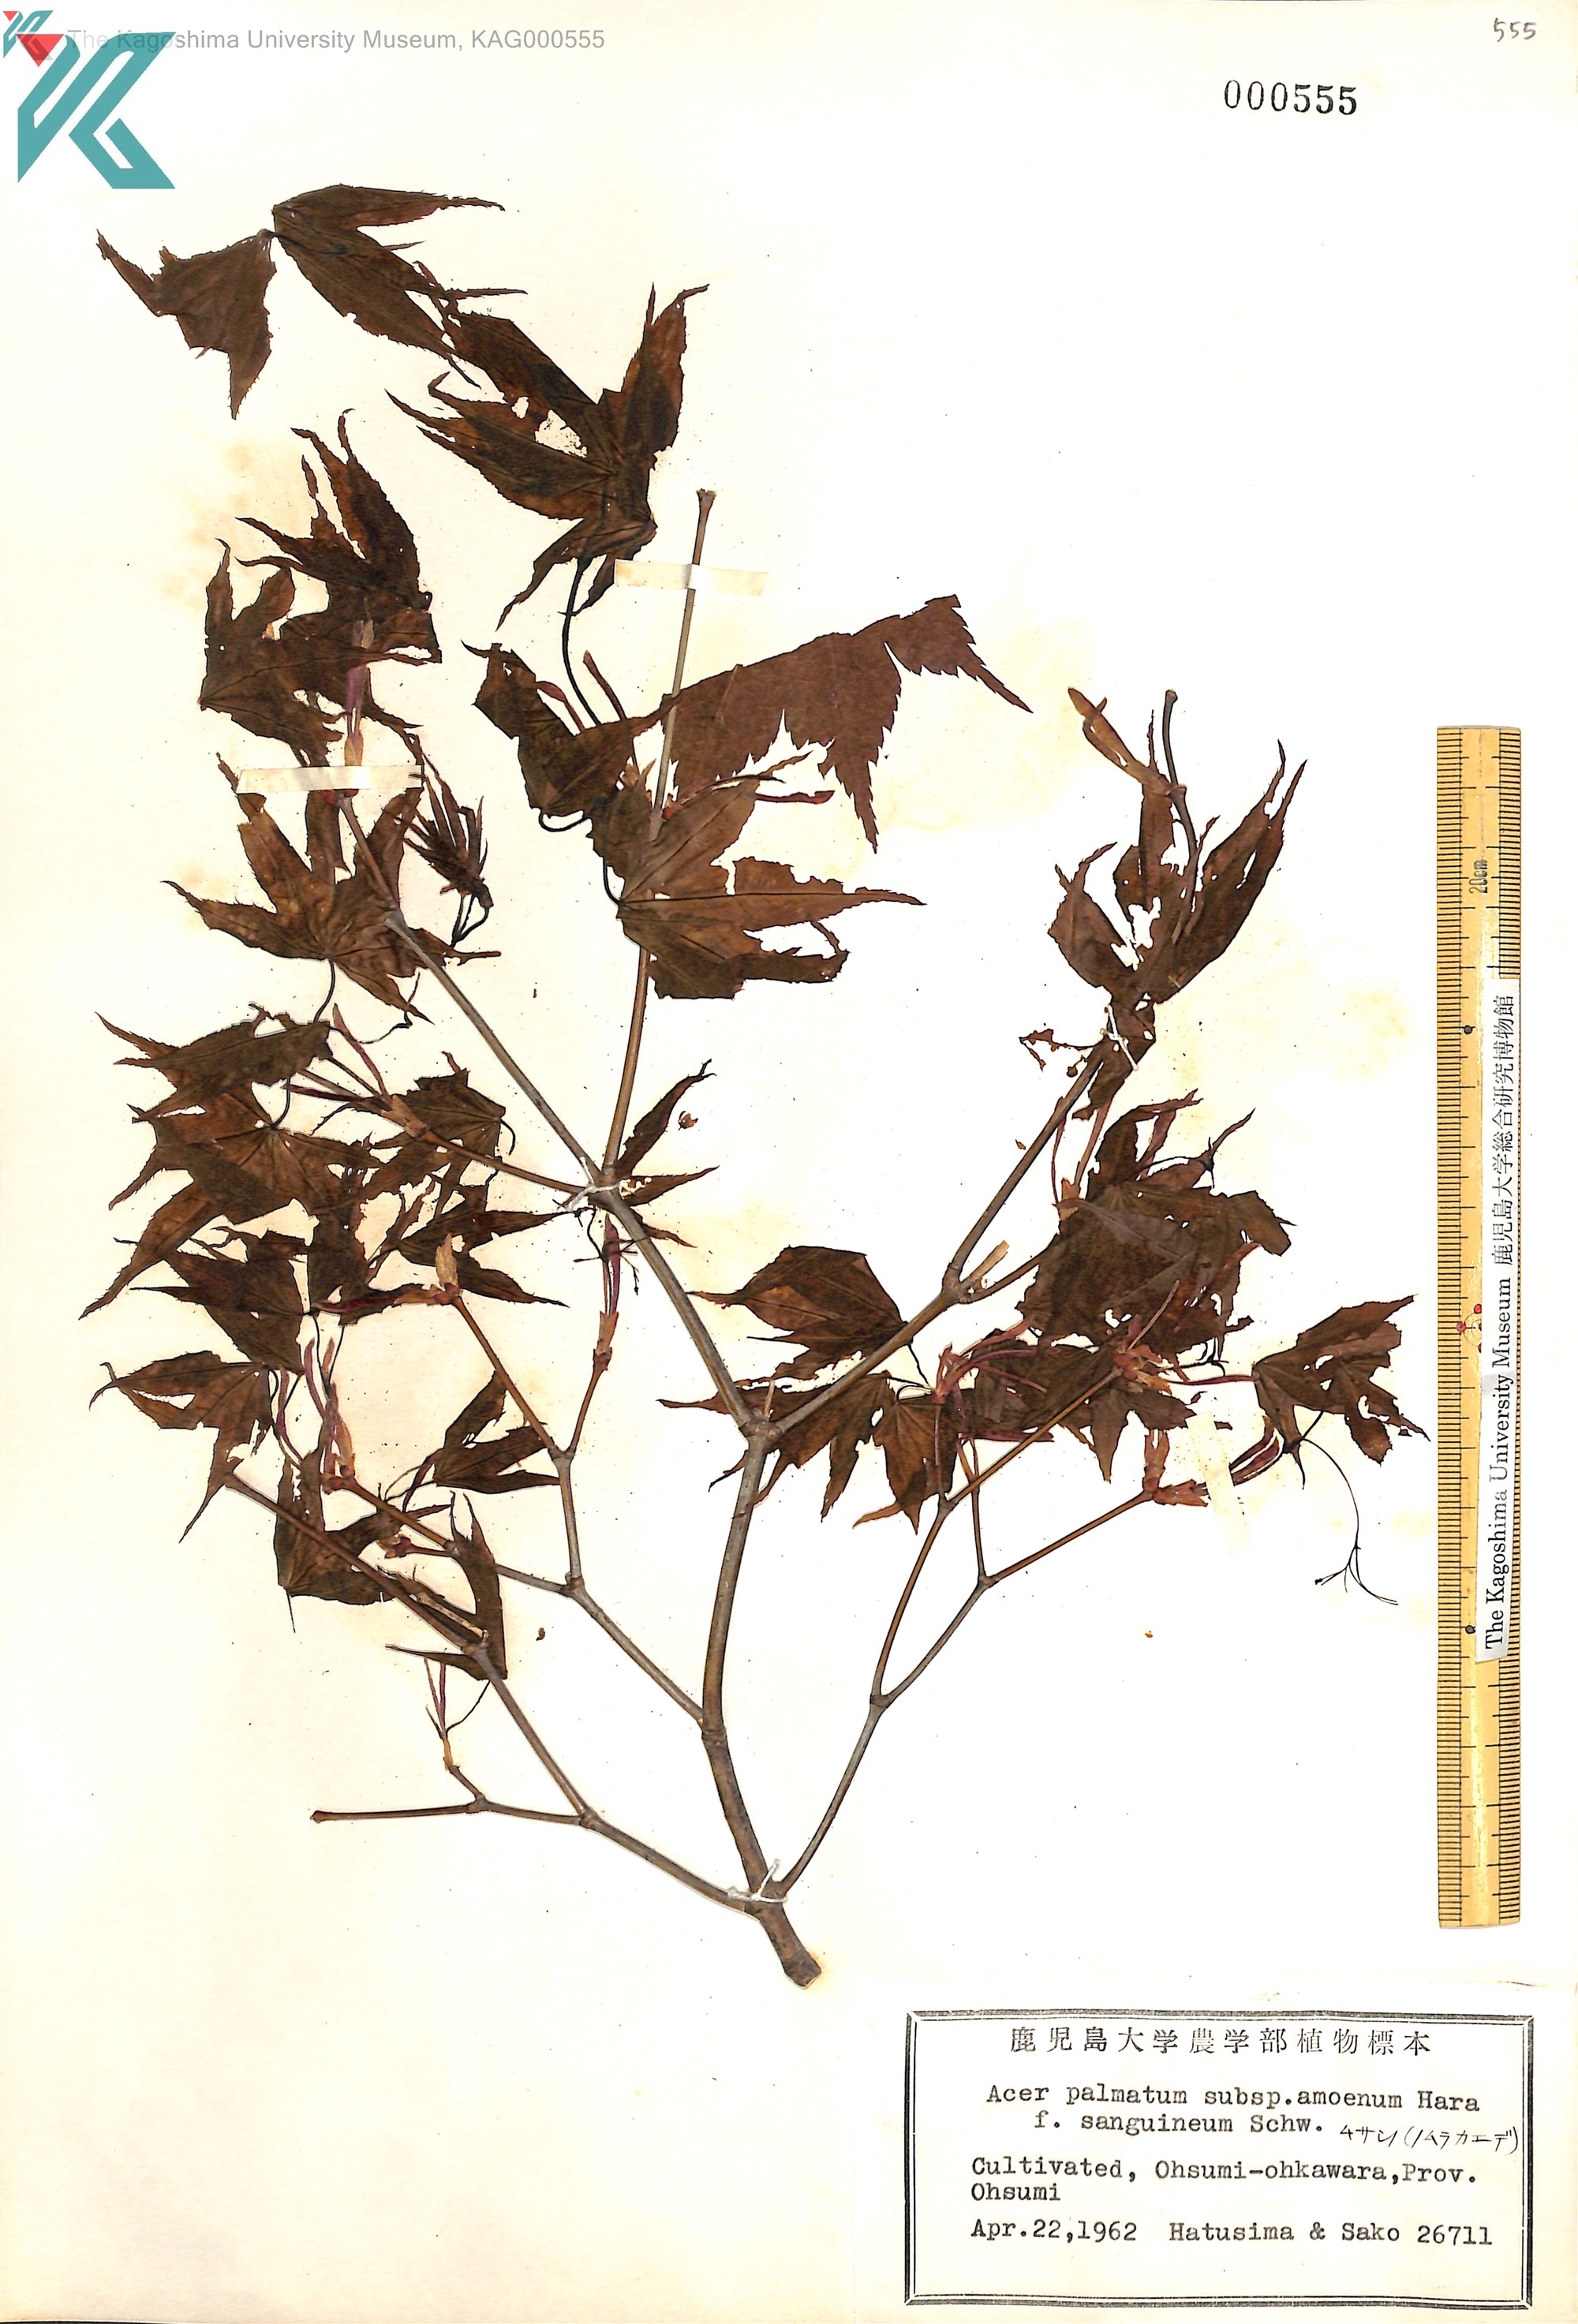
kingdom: Plantae
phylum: Tracheophyta
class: Magnoliopsida
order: Sapindales
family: Sapindaceae
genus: Acer
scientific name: Acer palmatum
